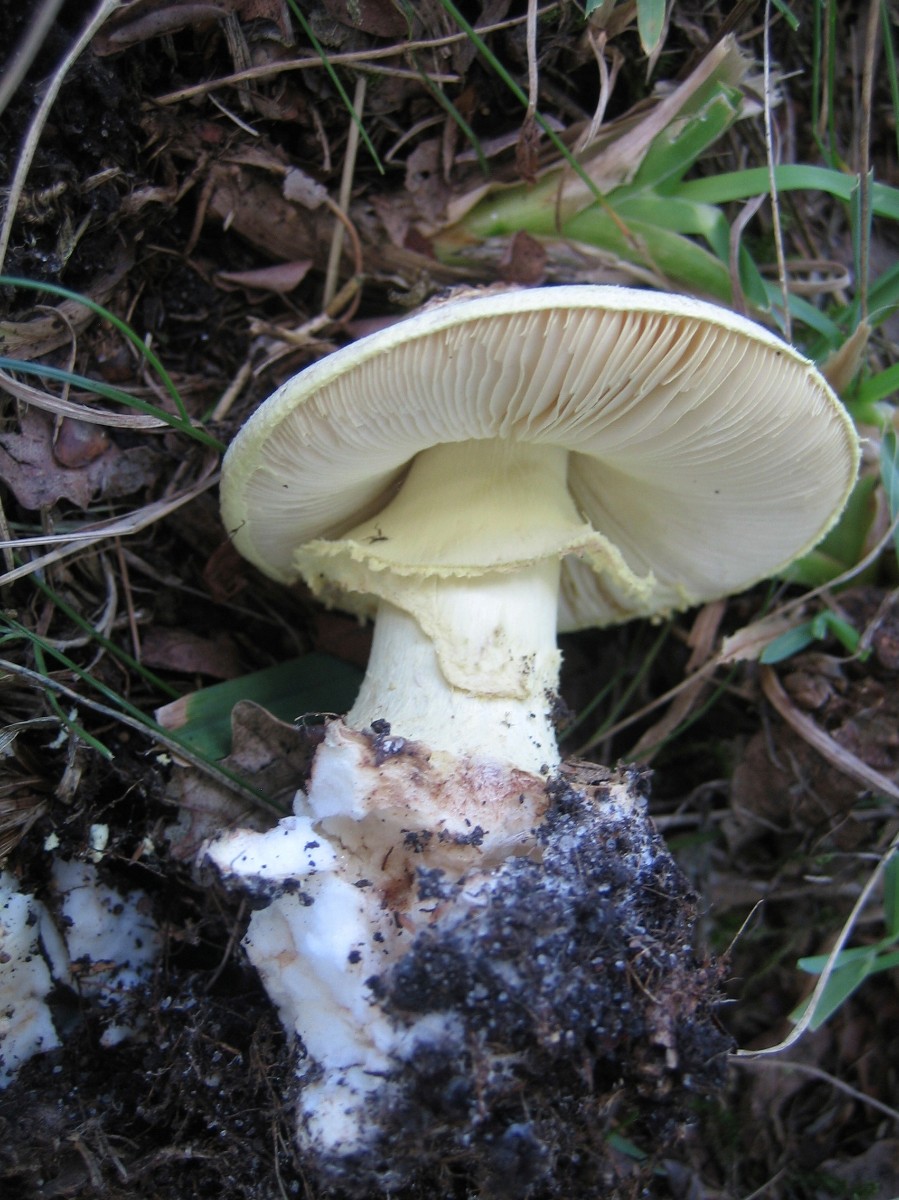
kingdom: Fungi
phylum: Basidiomycota
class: Agaricomycetes
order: Agaricales
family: Amanitaceae
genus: Amanita
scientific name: Amanita
